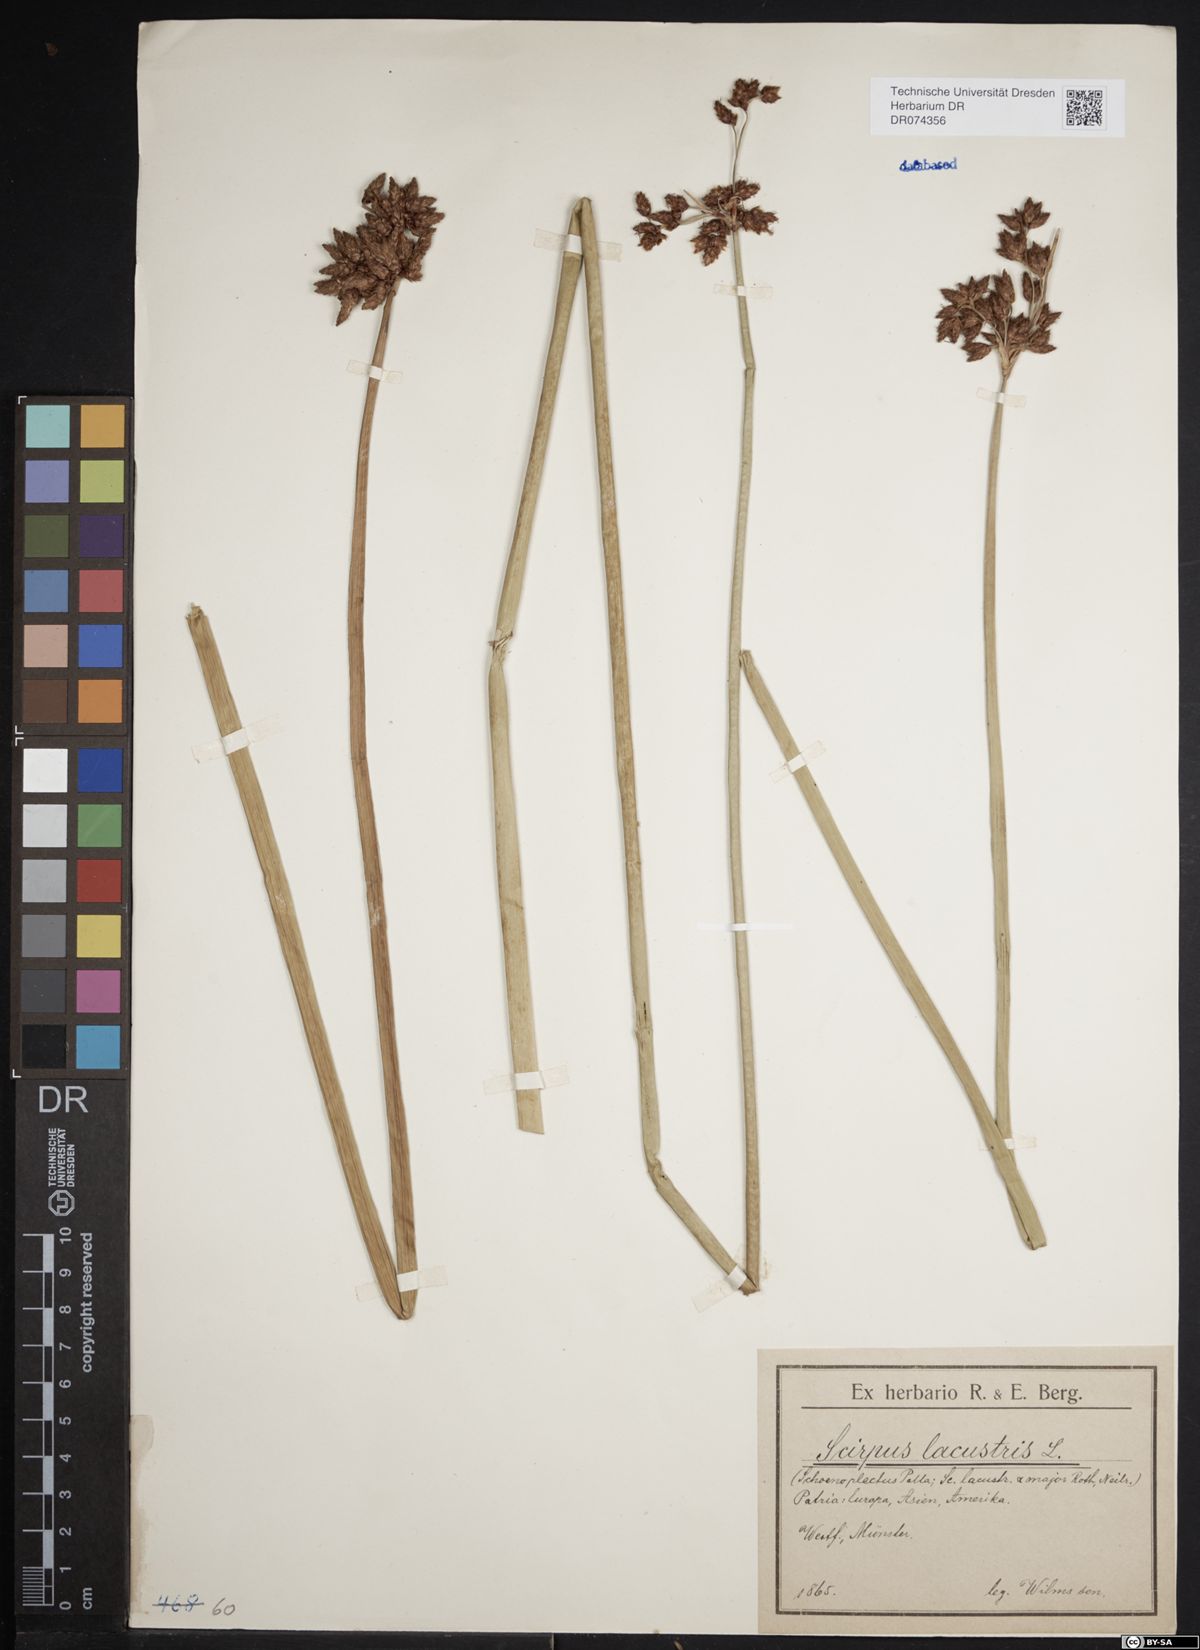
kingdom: Plantae
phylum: Tracheophyta
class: Liliopsida
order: Poales
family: Cyperaceae
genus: Schoenoplectus
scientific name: Schoenoplectus lacustris
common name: Common club-rush
